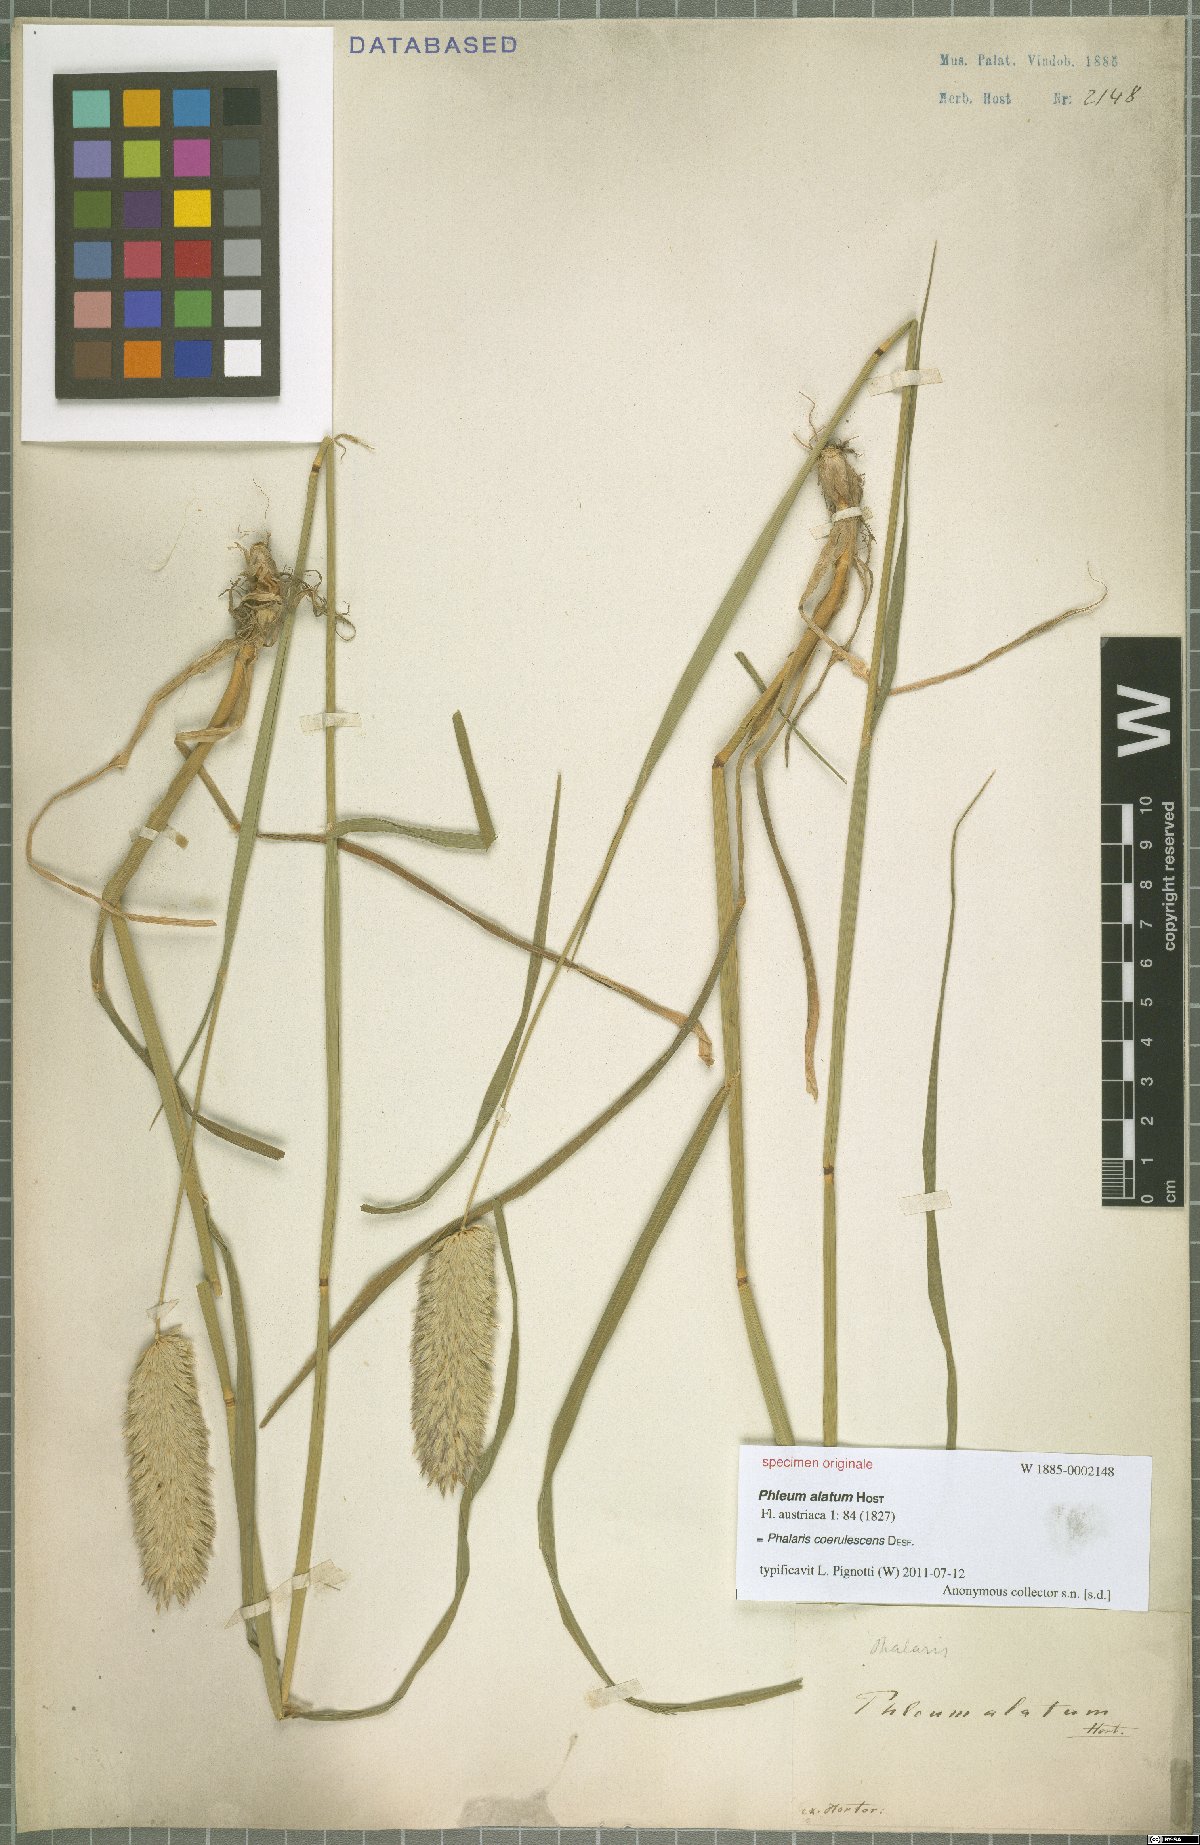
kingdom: Plantae
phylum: Tracheophyta
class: Liliopsida
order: Poales
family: Poaceae
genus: Phalaris
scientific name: Phalaris coerulescens
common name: Sunolgrass
